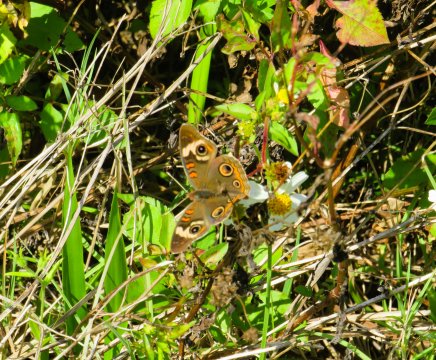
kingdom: Animalia
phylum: Arthropoda
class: Insecta
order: Lepidoptera
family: Nymphalidae
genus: Junonia
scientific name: Junonia coenia
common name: Common Buckeye
